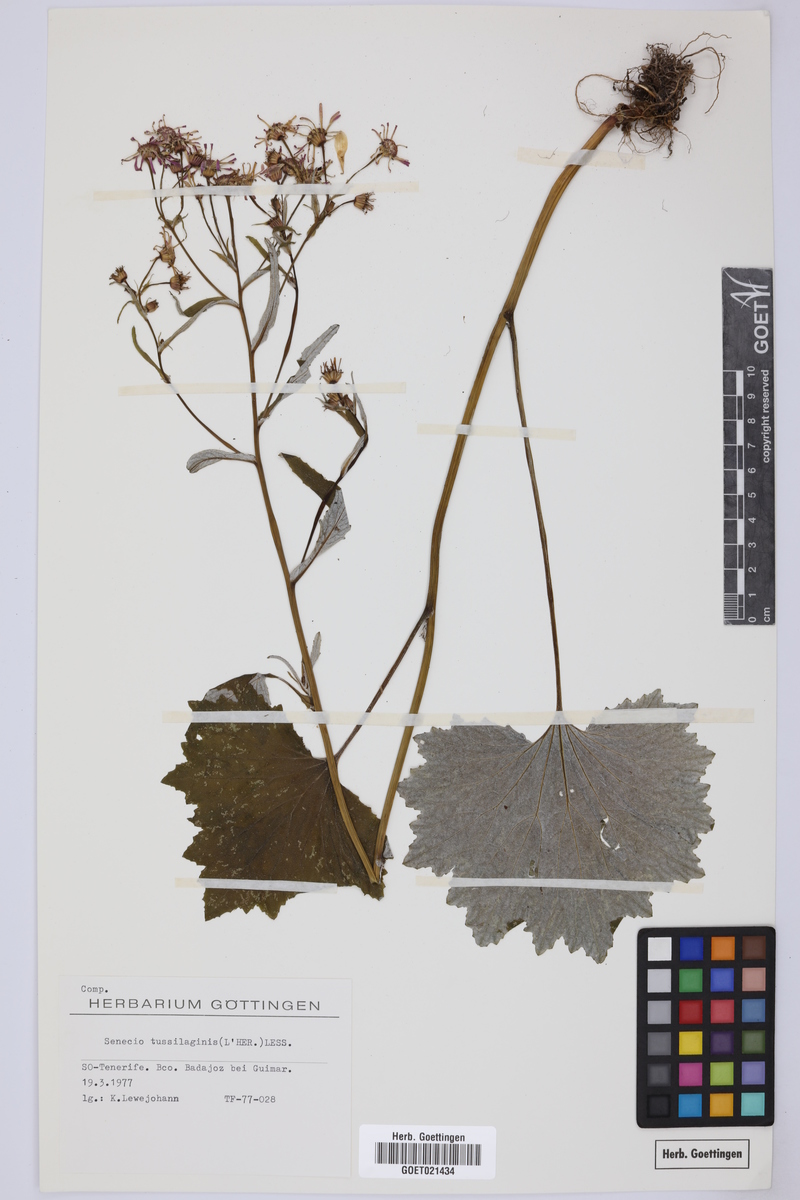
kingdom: Plantae
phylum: Tracheophyta
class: Magnoliopsida
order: Asterales
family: Asteraceae
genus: Pericallis
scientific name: Pericallis tussilaginis
